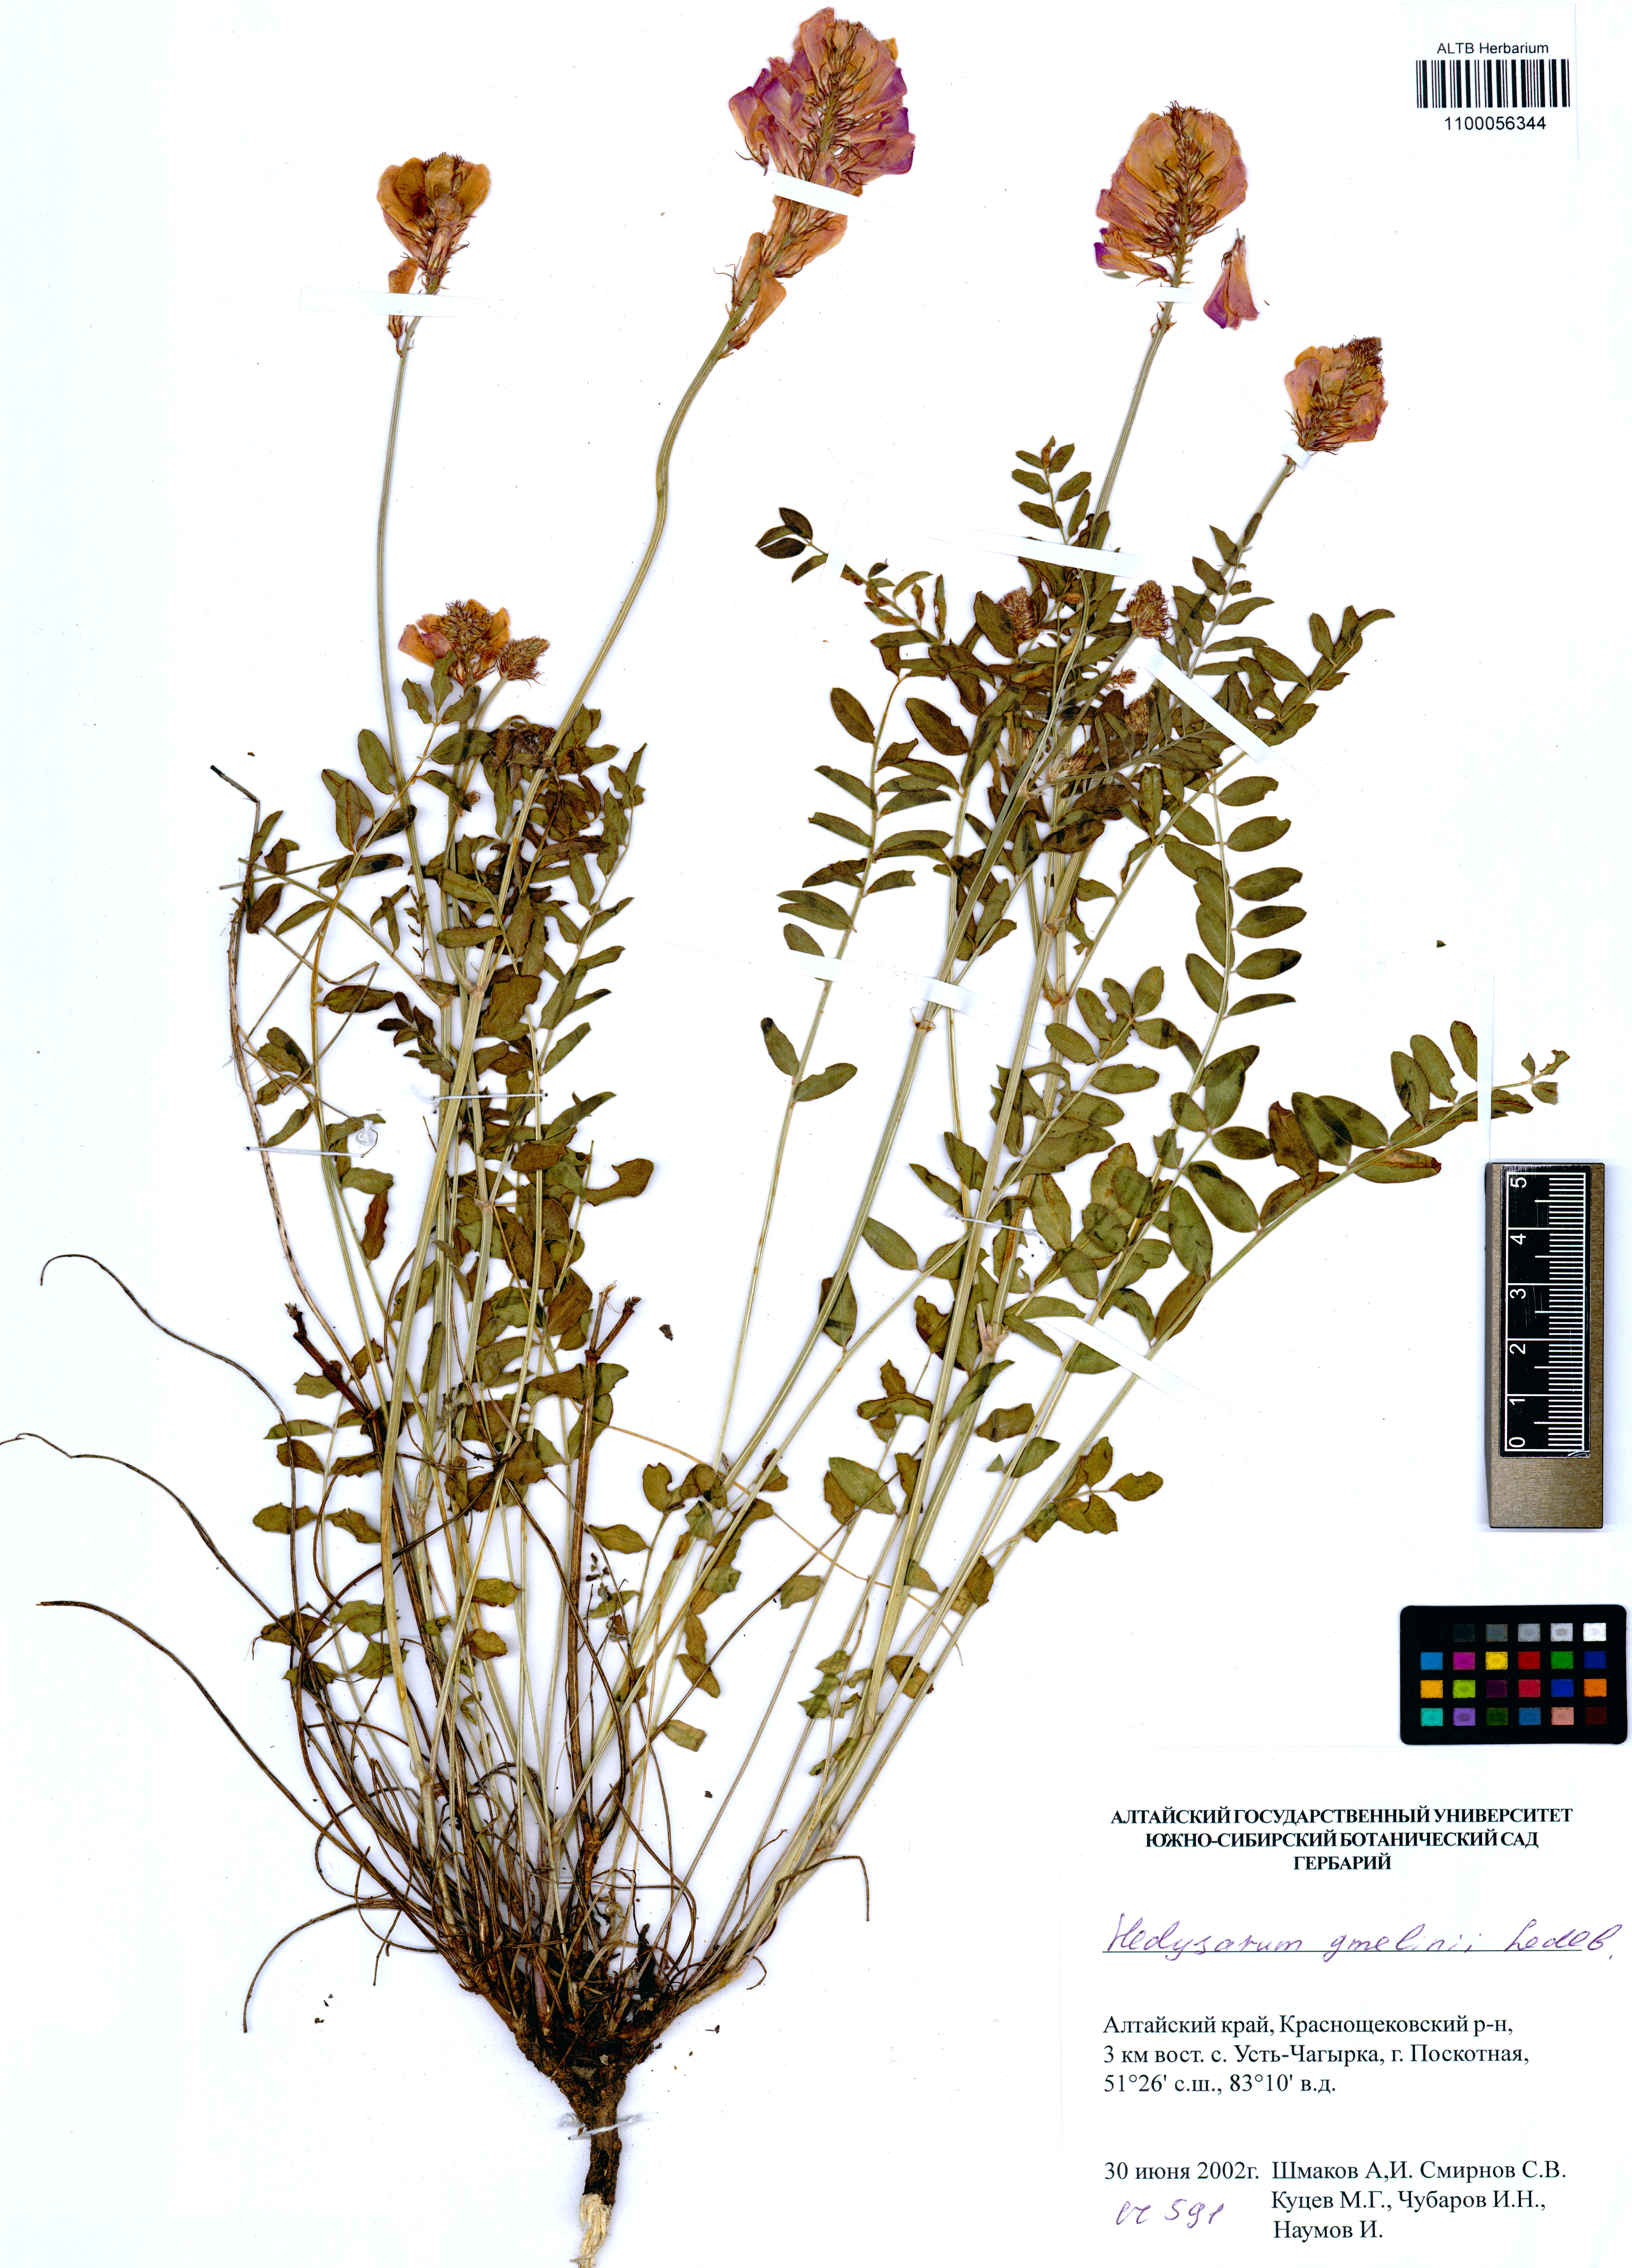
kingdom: Plantae
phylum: Tracheophyta
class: Magnoliopsida
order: Fabales
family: Fabaceae
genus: Hedysarum
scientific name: Hedysarum gmelinii
